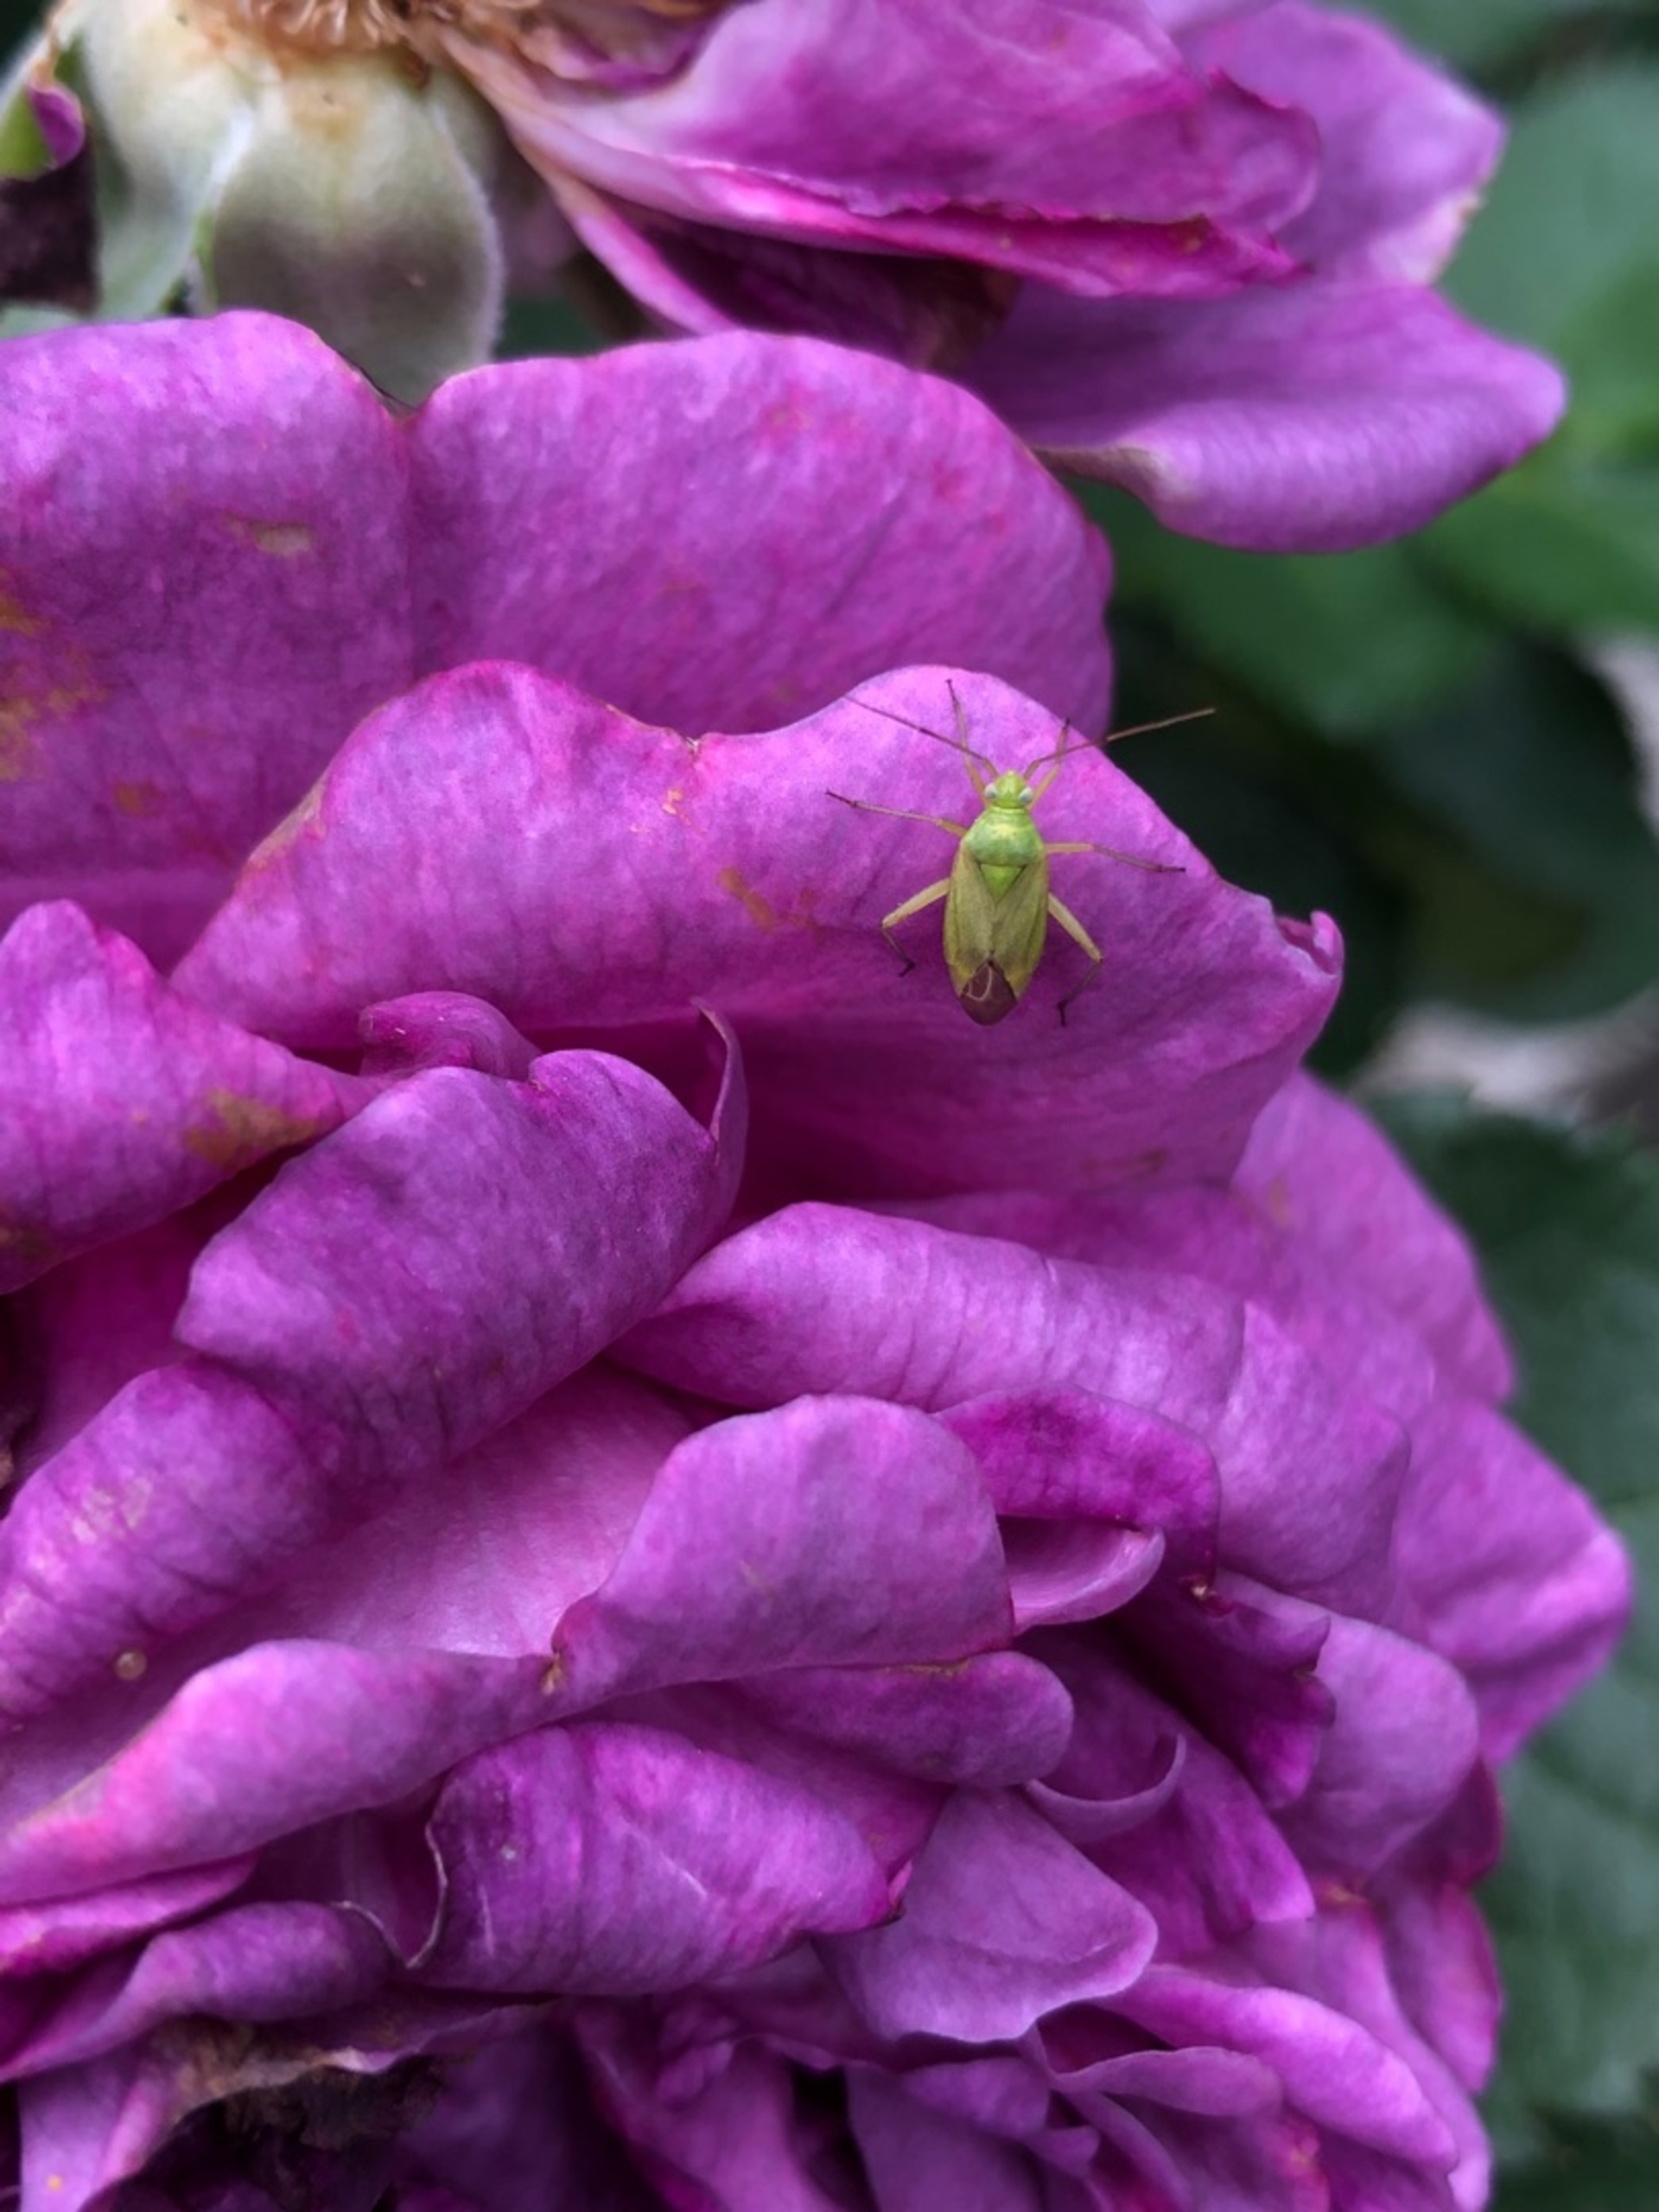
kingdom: Animalia
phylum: Arthropoda
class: Insecta
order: Hemiptera
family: Miridae
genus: Closterotomus
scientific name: Closterotomus norvegicus
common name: Toplettet bederoetæge
